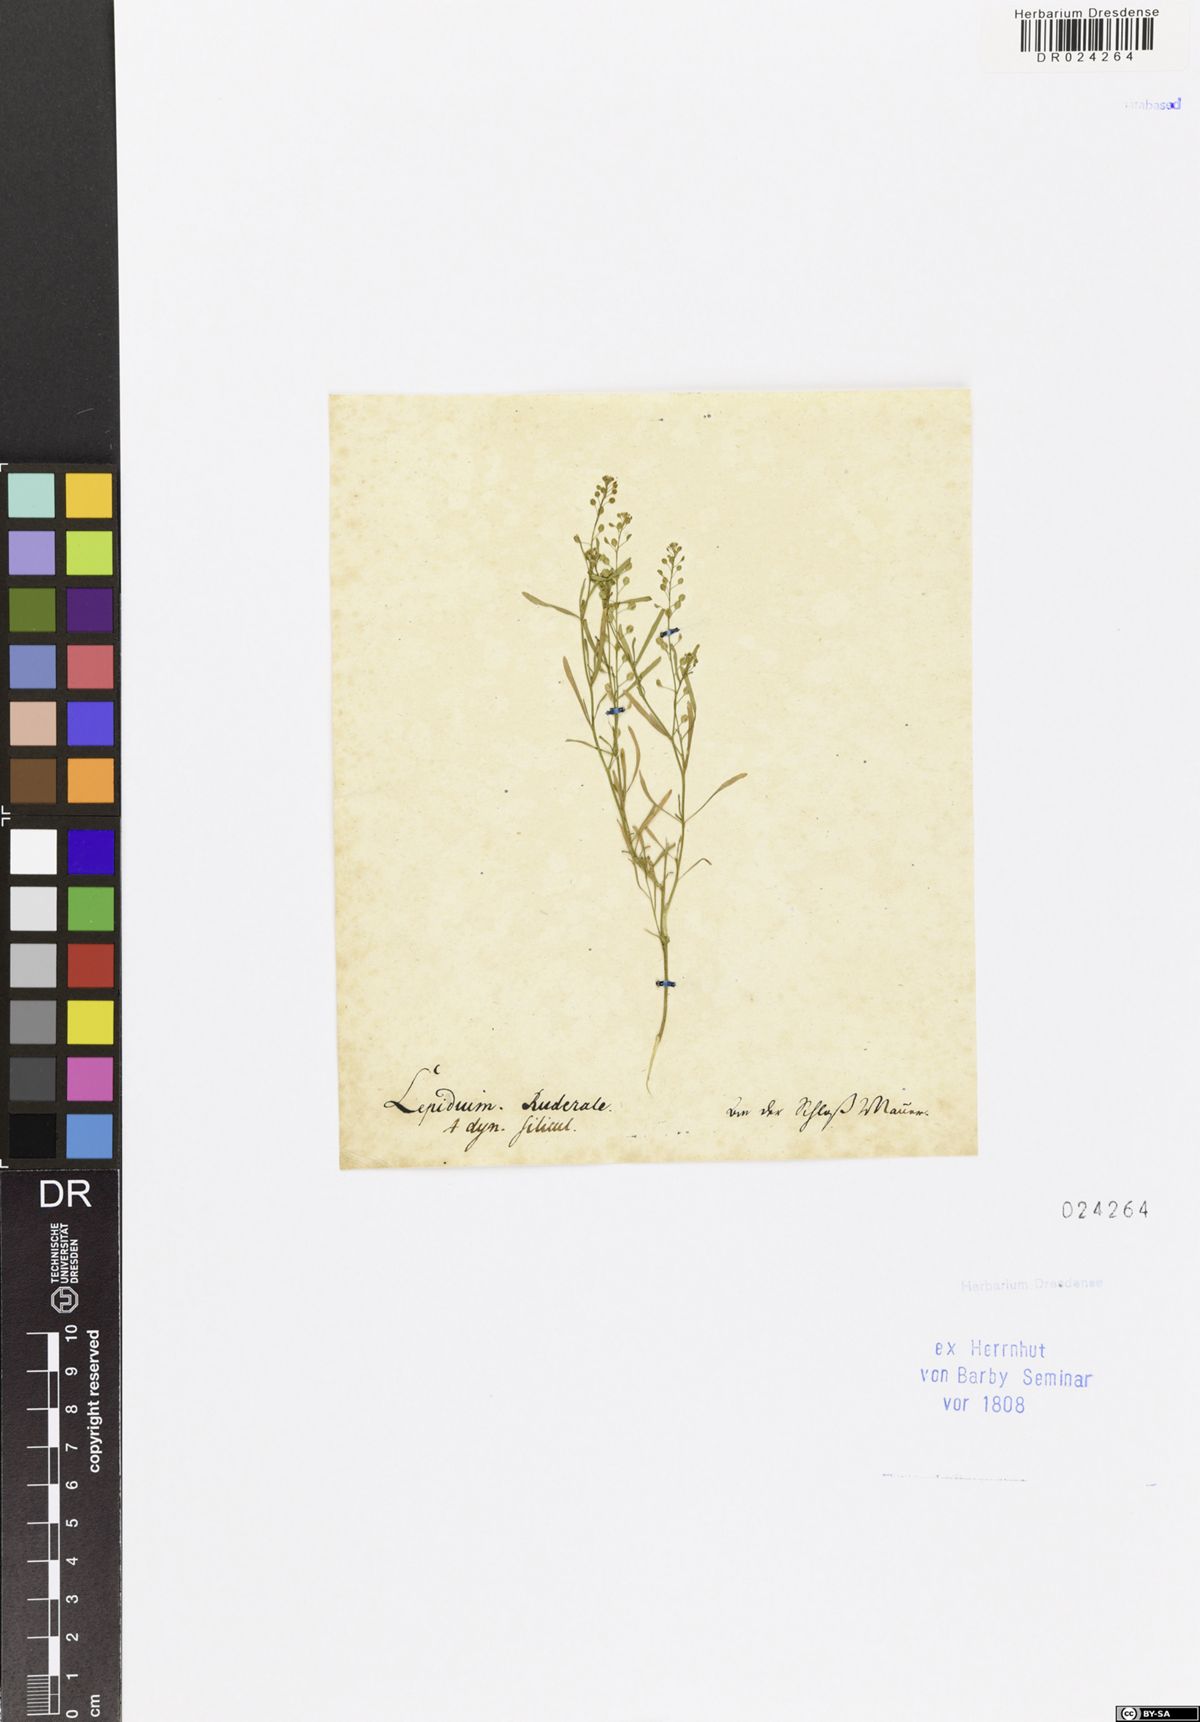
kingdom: Plantae
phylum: Tracheophyta
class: Magnoliopsida
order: Brassicales
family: Brassicaceae
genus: Lepidium
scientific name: Lepidium ruderale
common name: Narrow-leaved pepperwort
